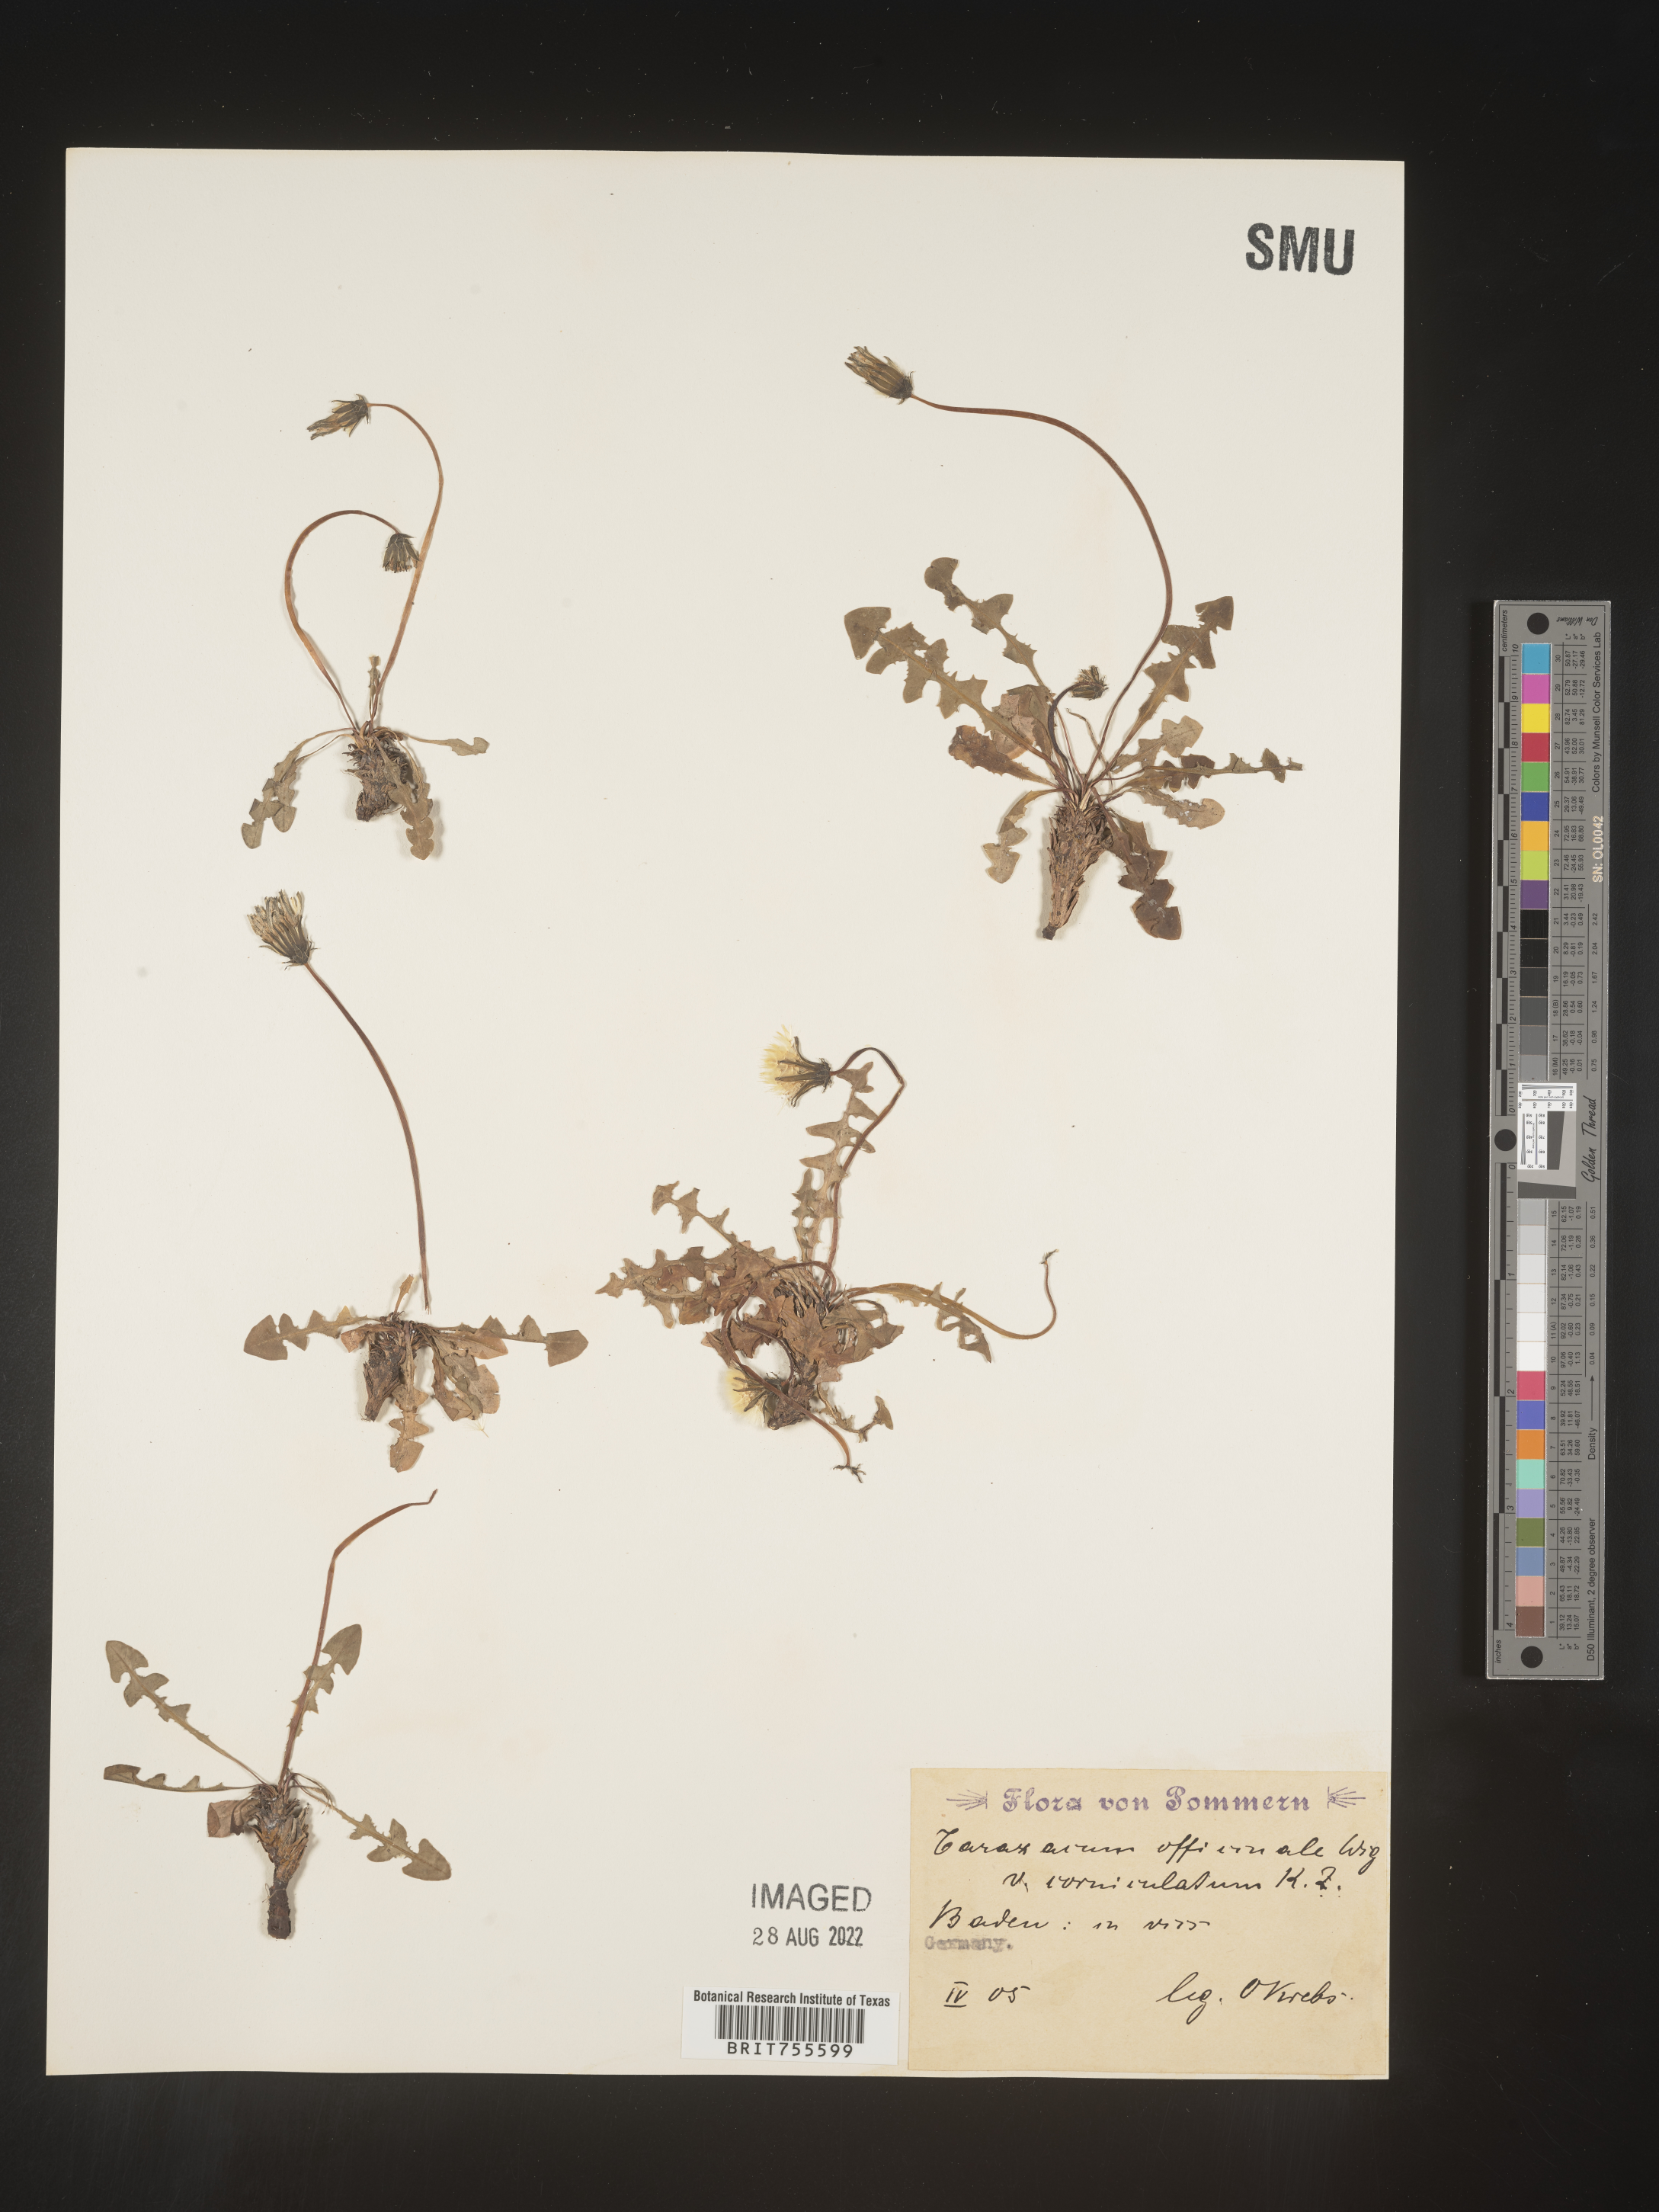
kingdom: Plantae
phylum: Tracheophyta
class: Magnoliopsida
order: Asterales
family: Asteraceae
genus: Taraxacum
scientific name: Taraxacum
